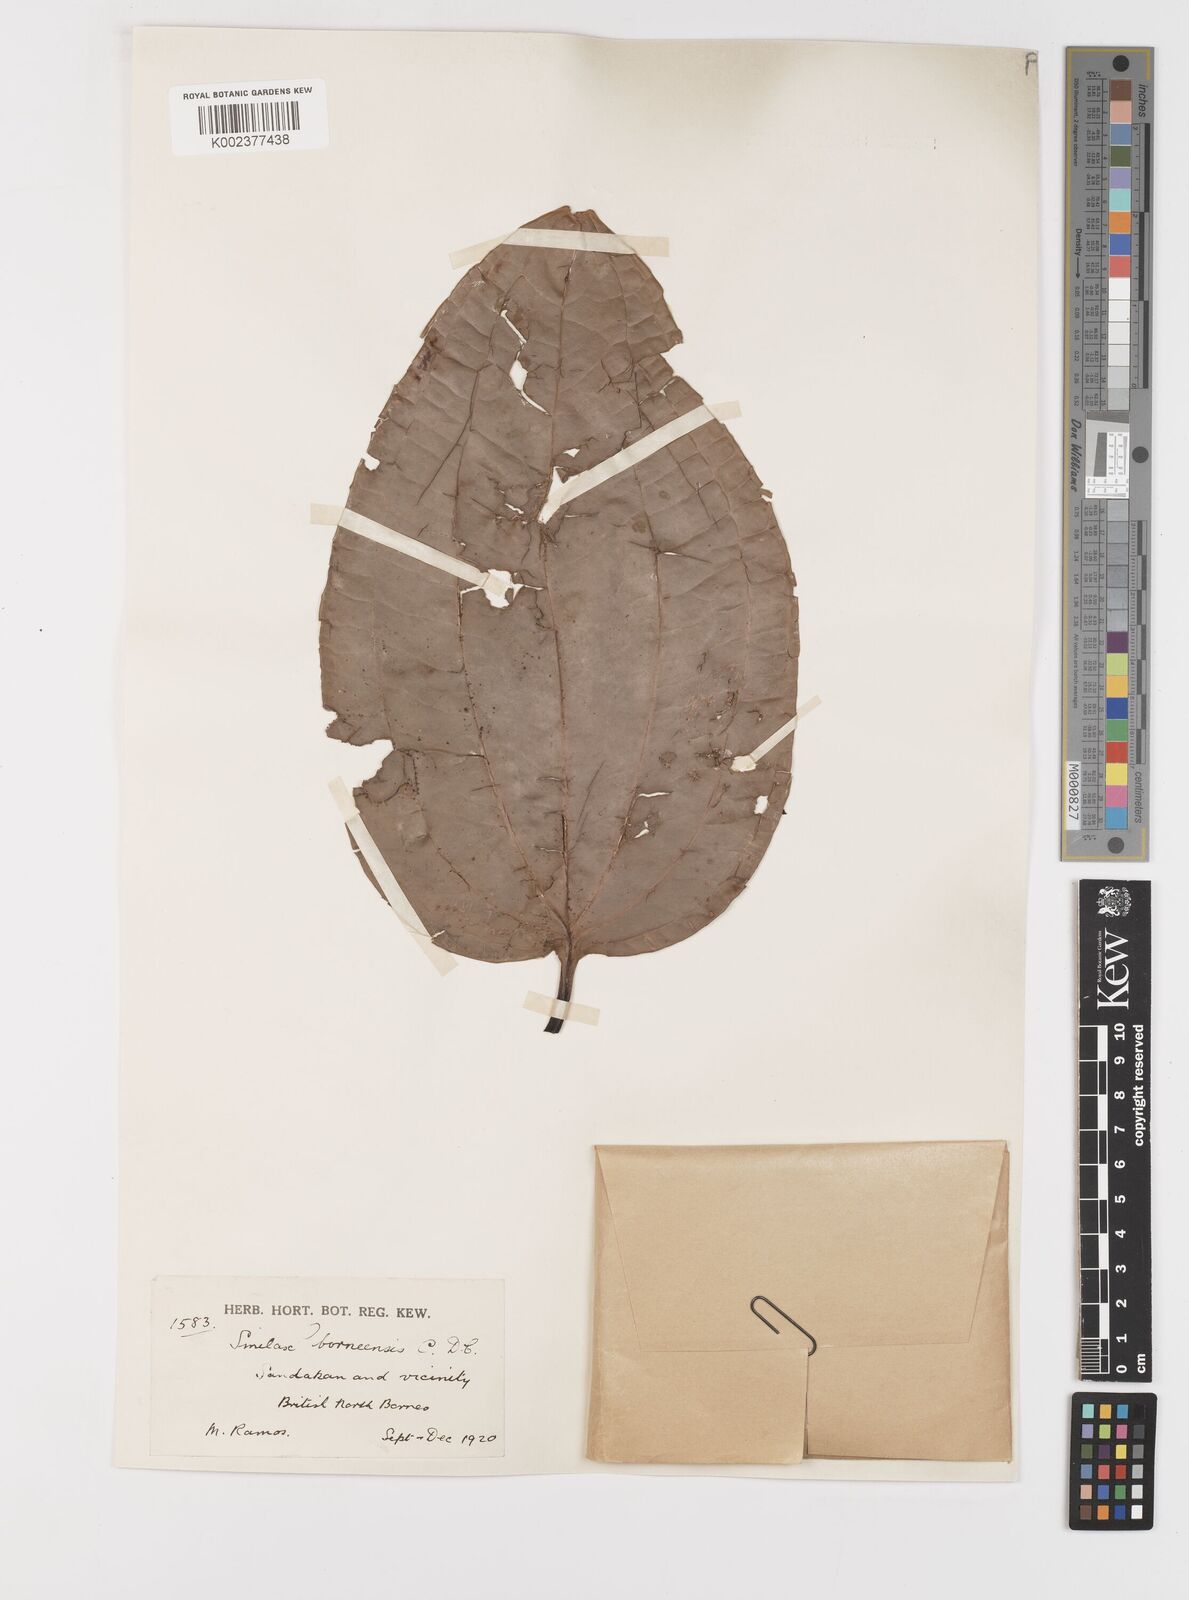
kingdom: Plantae
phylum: Tracheophyta
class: Liliopsida
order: Liliales
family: Smilacaceae
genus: Smilax
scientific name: Smilax borneensis
